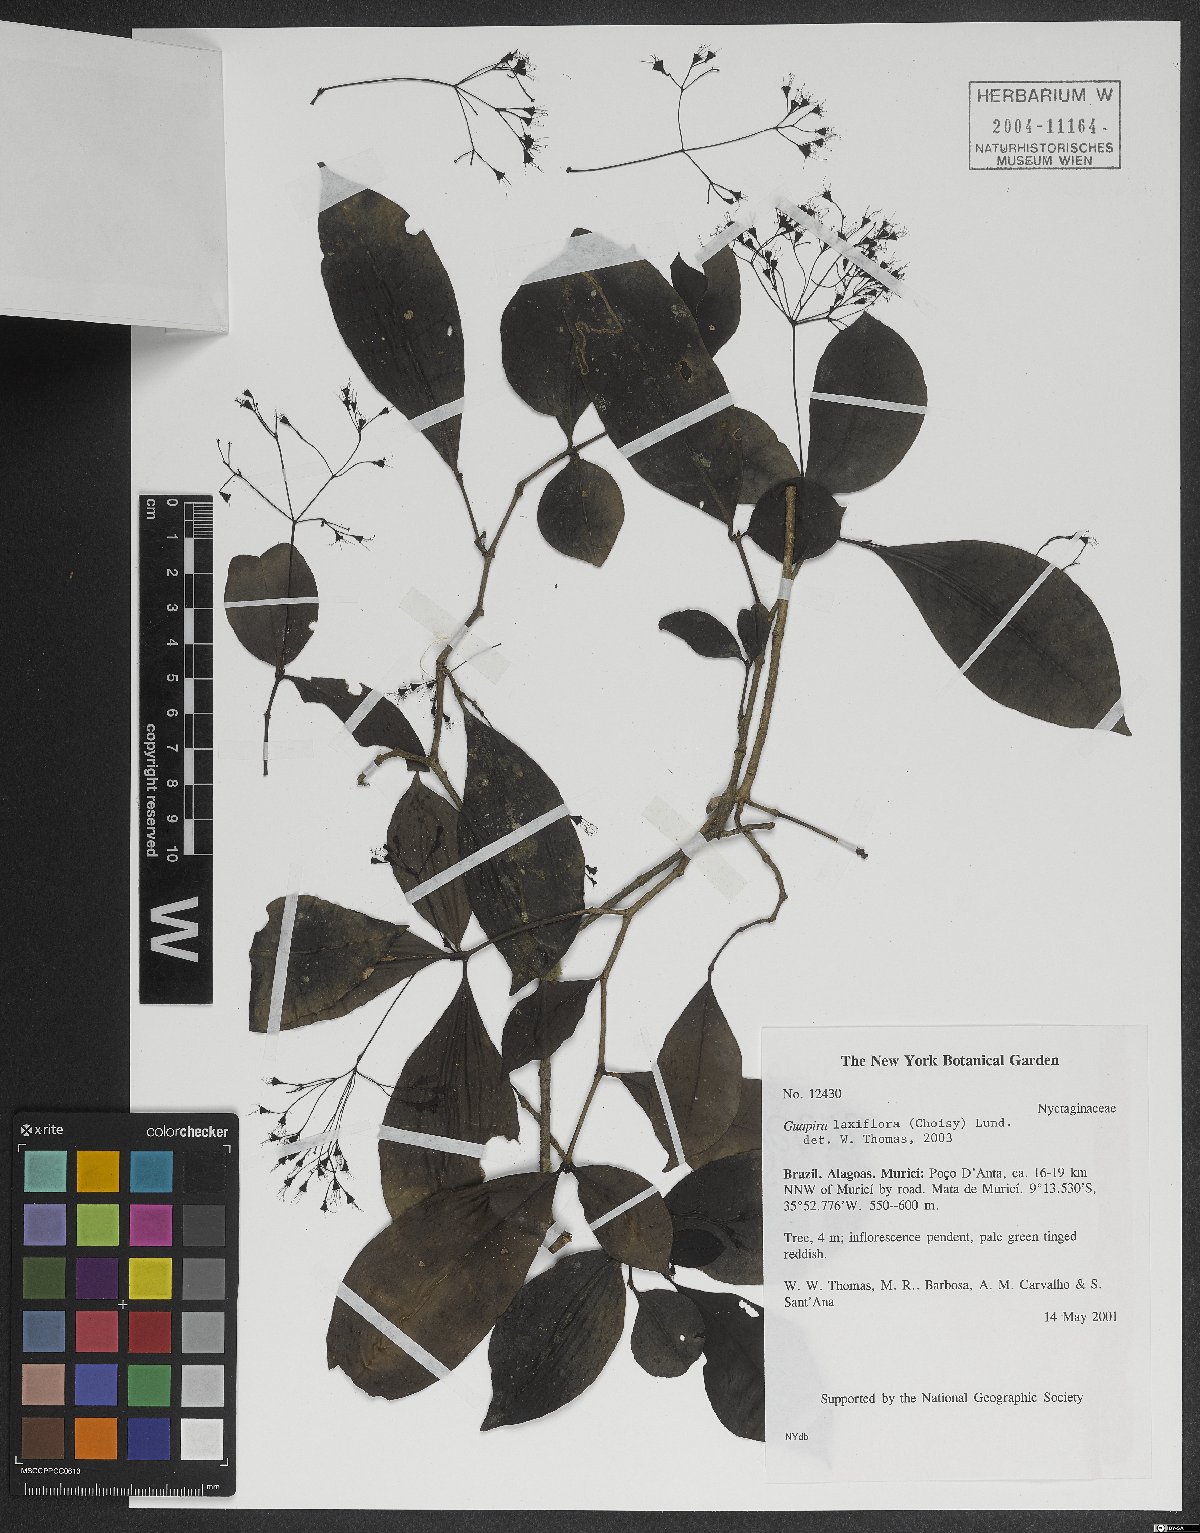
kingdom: Plantae
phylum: Tracheophyta
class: Magnoliopsida
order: Caryophyllales
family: Nyctaginaceae
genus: Guapira
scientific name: Guapira laxiflora
